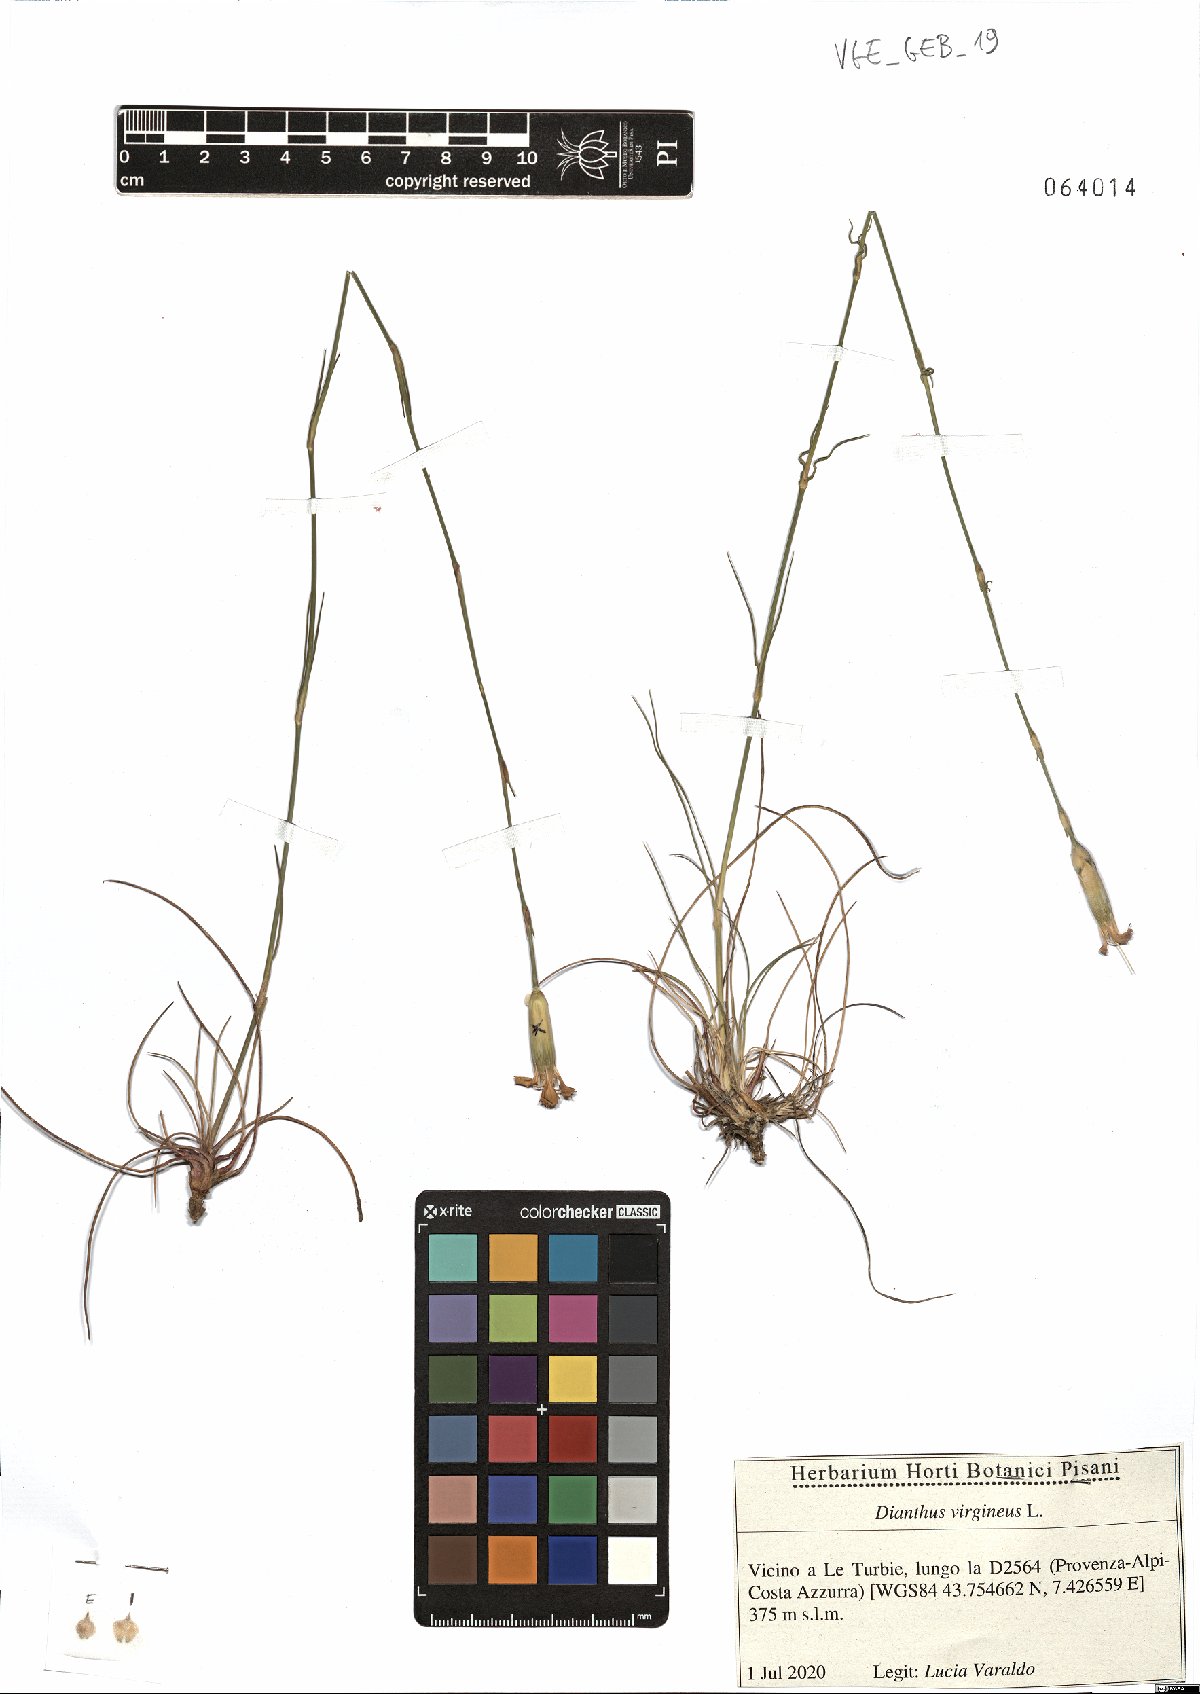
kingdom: Plantae
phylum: Tracheophyta
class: Magnoliopsida
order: Caryophyllales
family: Caryophyllaceae
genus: Dianthus
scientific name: Dianthus virgineus
